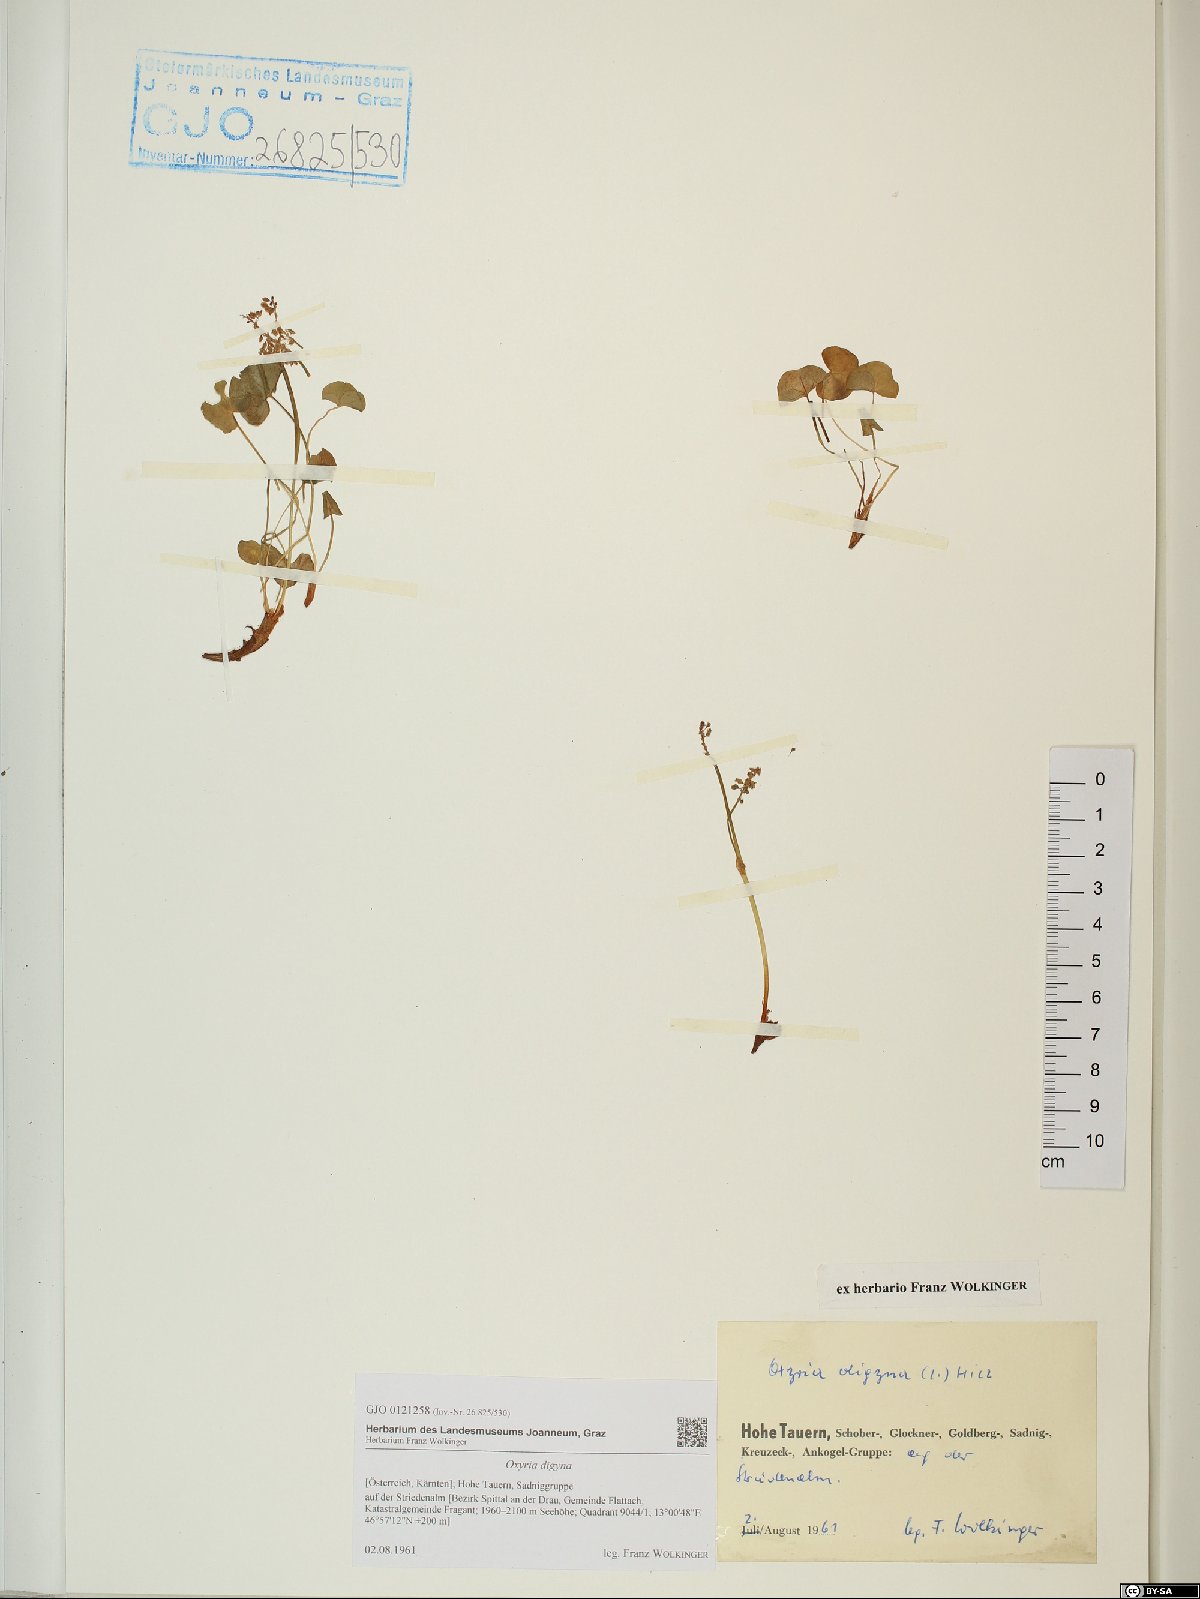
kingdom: Plantae
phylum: Tracheophyta
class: Magnoliopsida
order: Caryophyllales
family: Polygonaceae
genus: Oxyria
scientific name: Oxyria digyna
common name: Alpine mountain-sorrel
